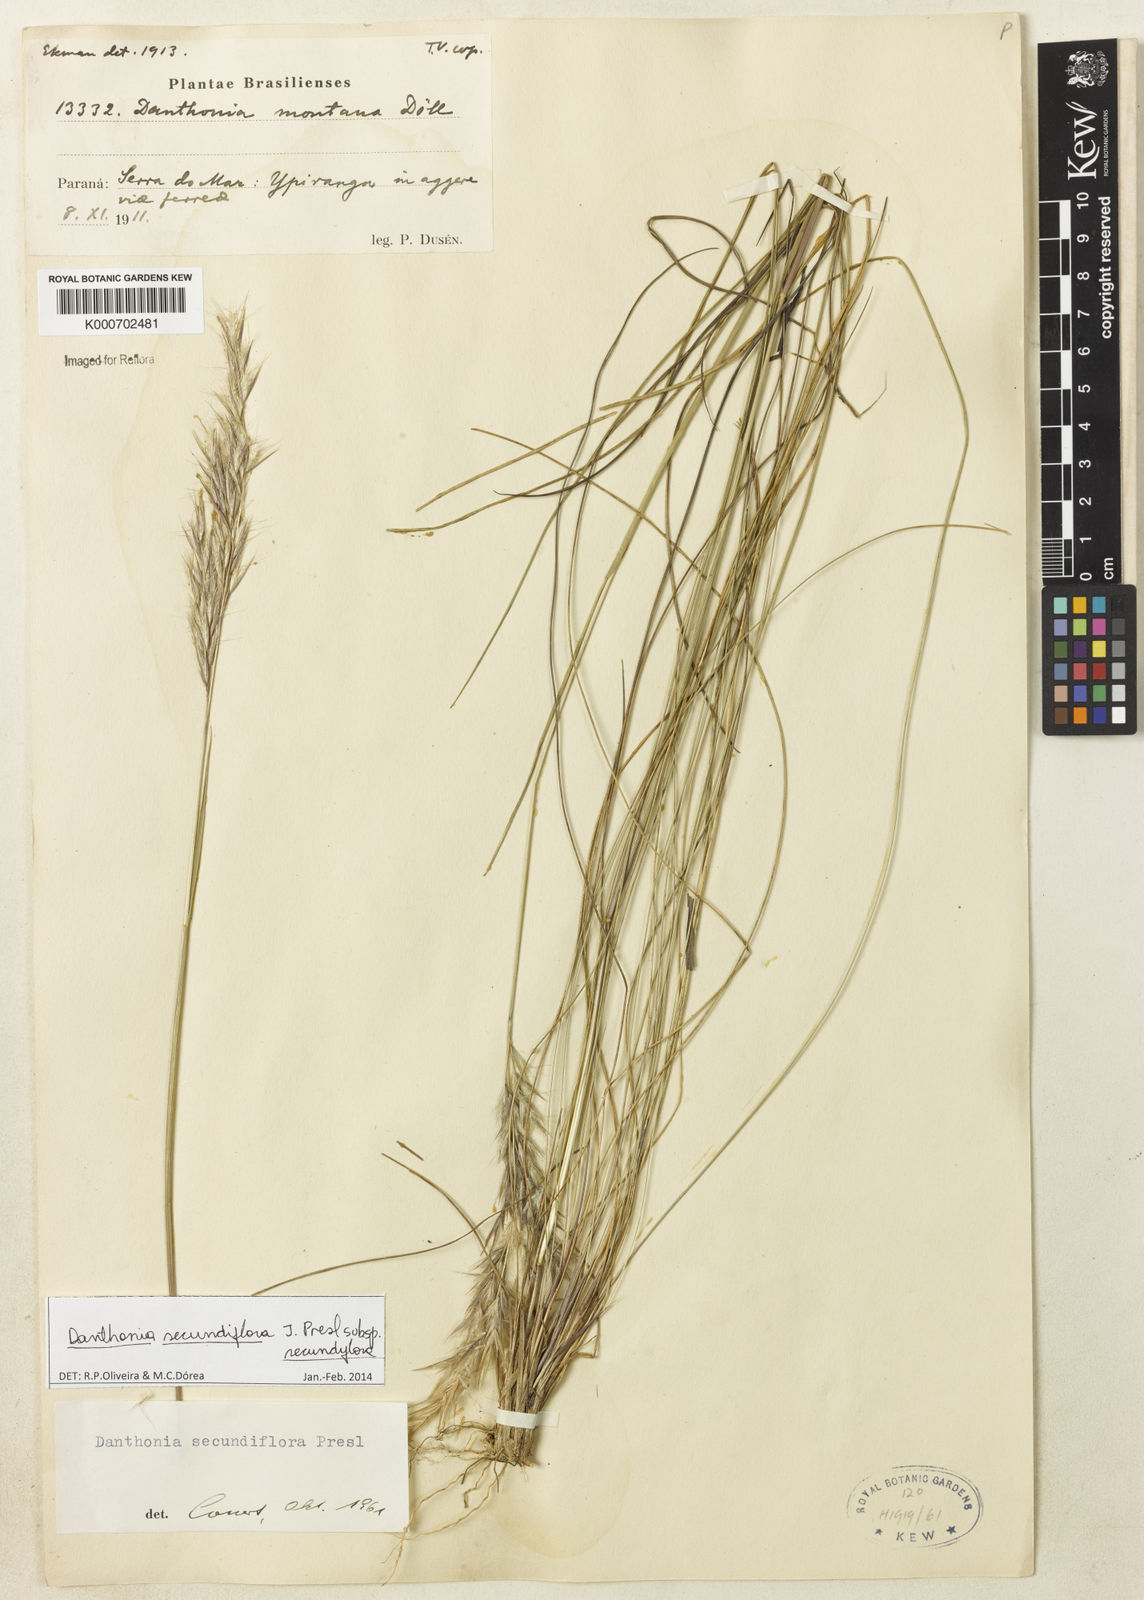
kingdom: Plantae
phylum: Tracheophyta
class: Liliopsida
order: Poales
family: Poaceae
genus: Danthonia
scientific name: Danthonia secundiflora
